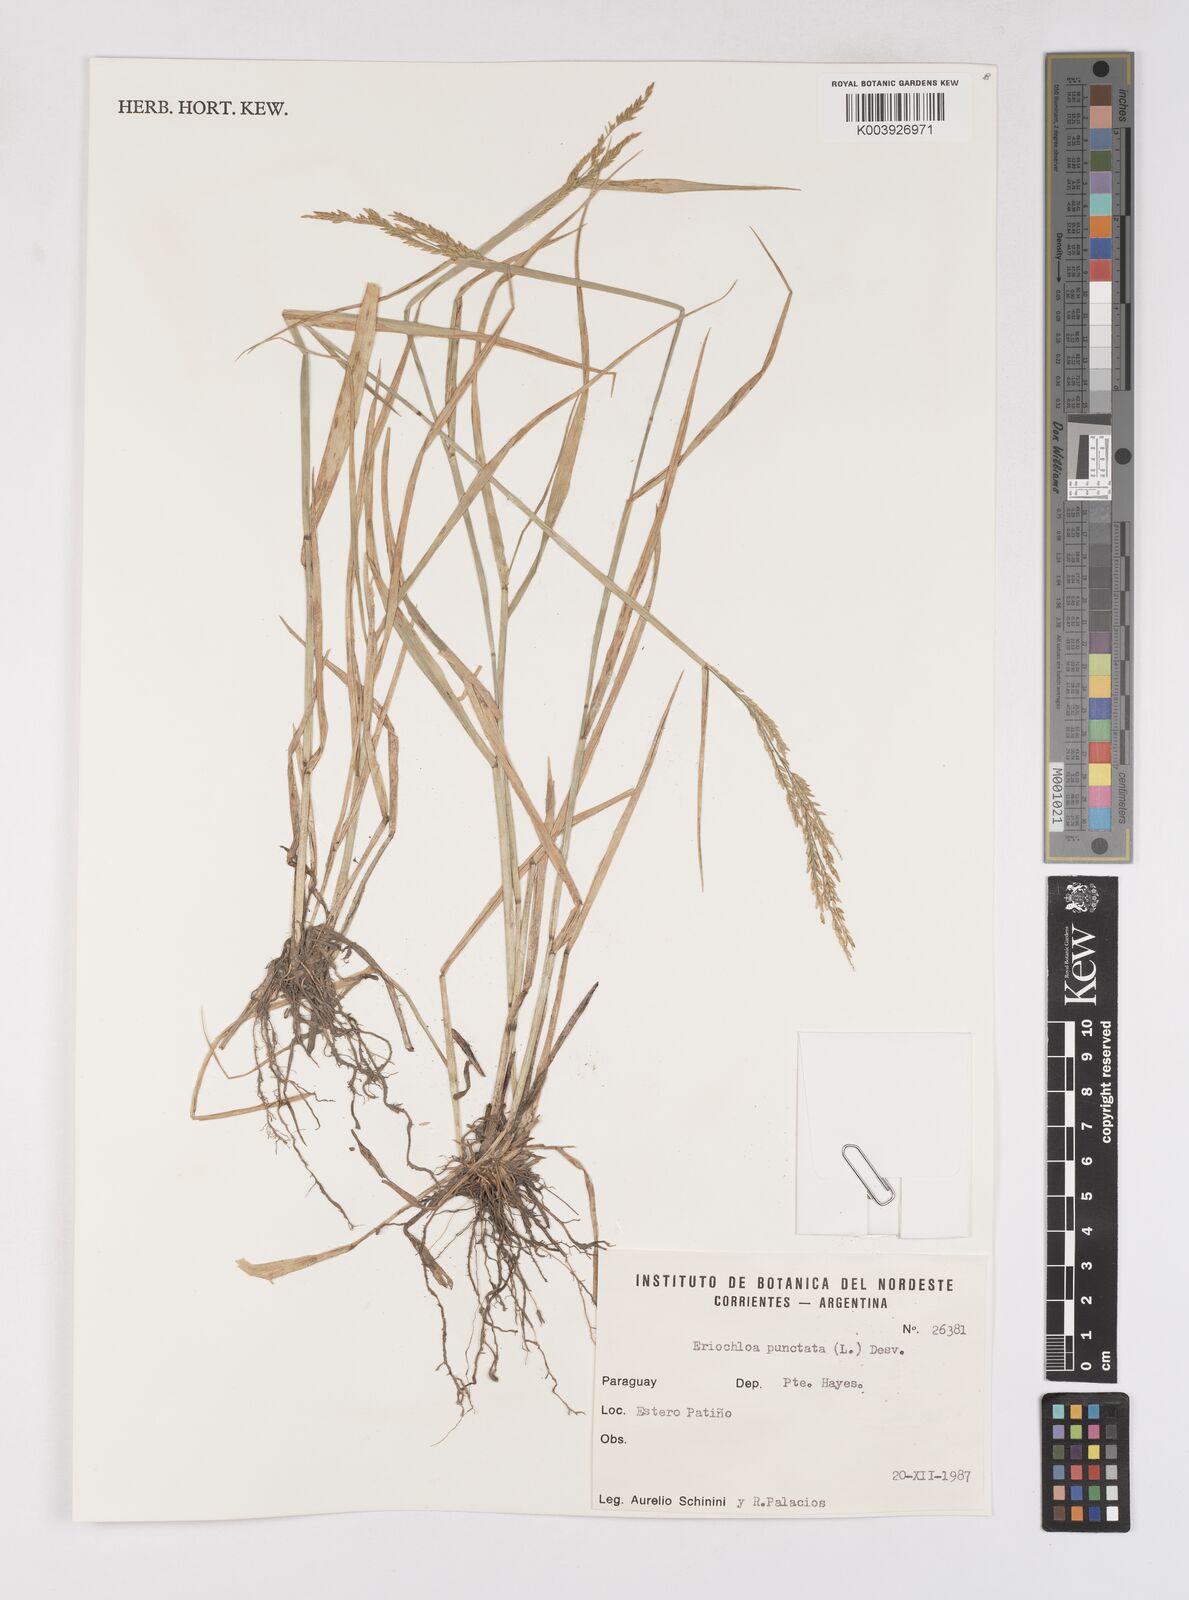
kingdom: Plantae
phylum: Tracheophyta
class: Liliopsida
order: Poales
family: Poaceae
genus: Eriochloa
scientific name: Eriochloa punctata
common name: Louisiana cupgrass
